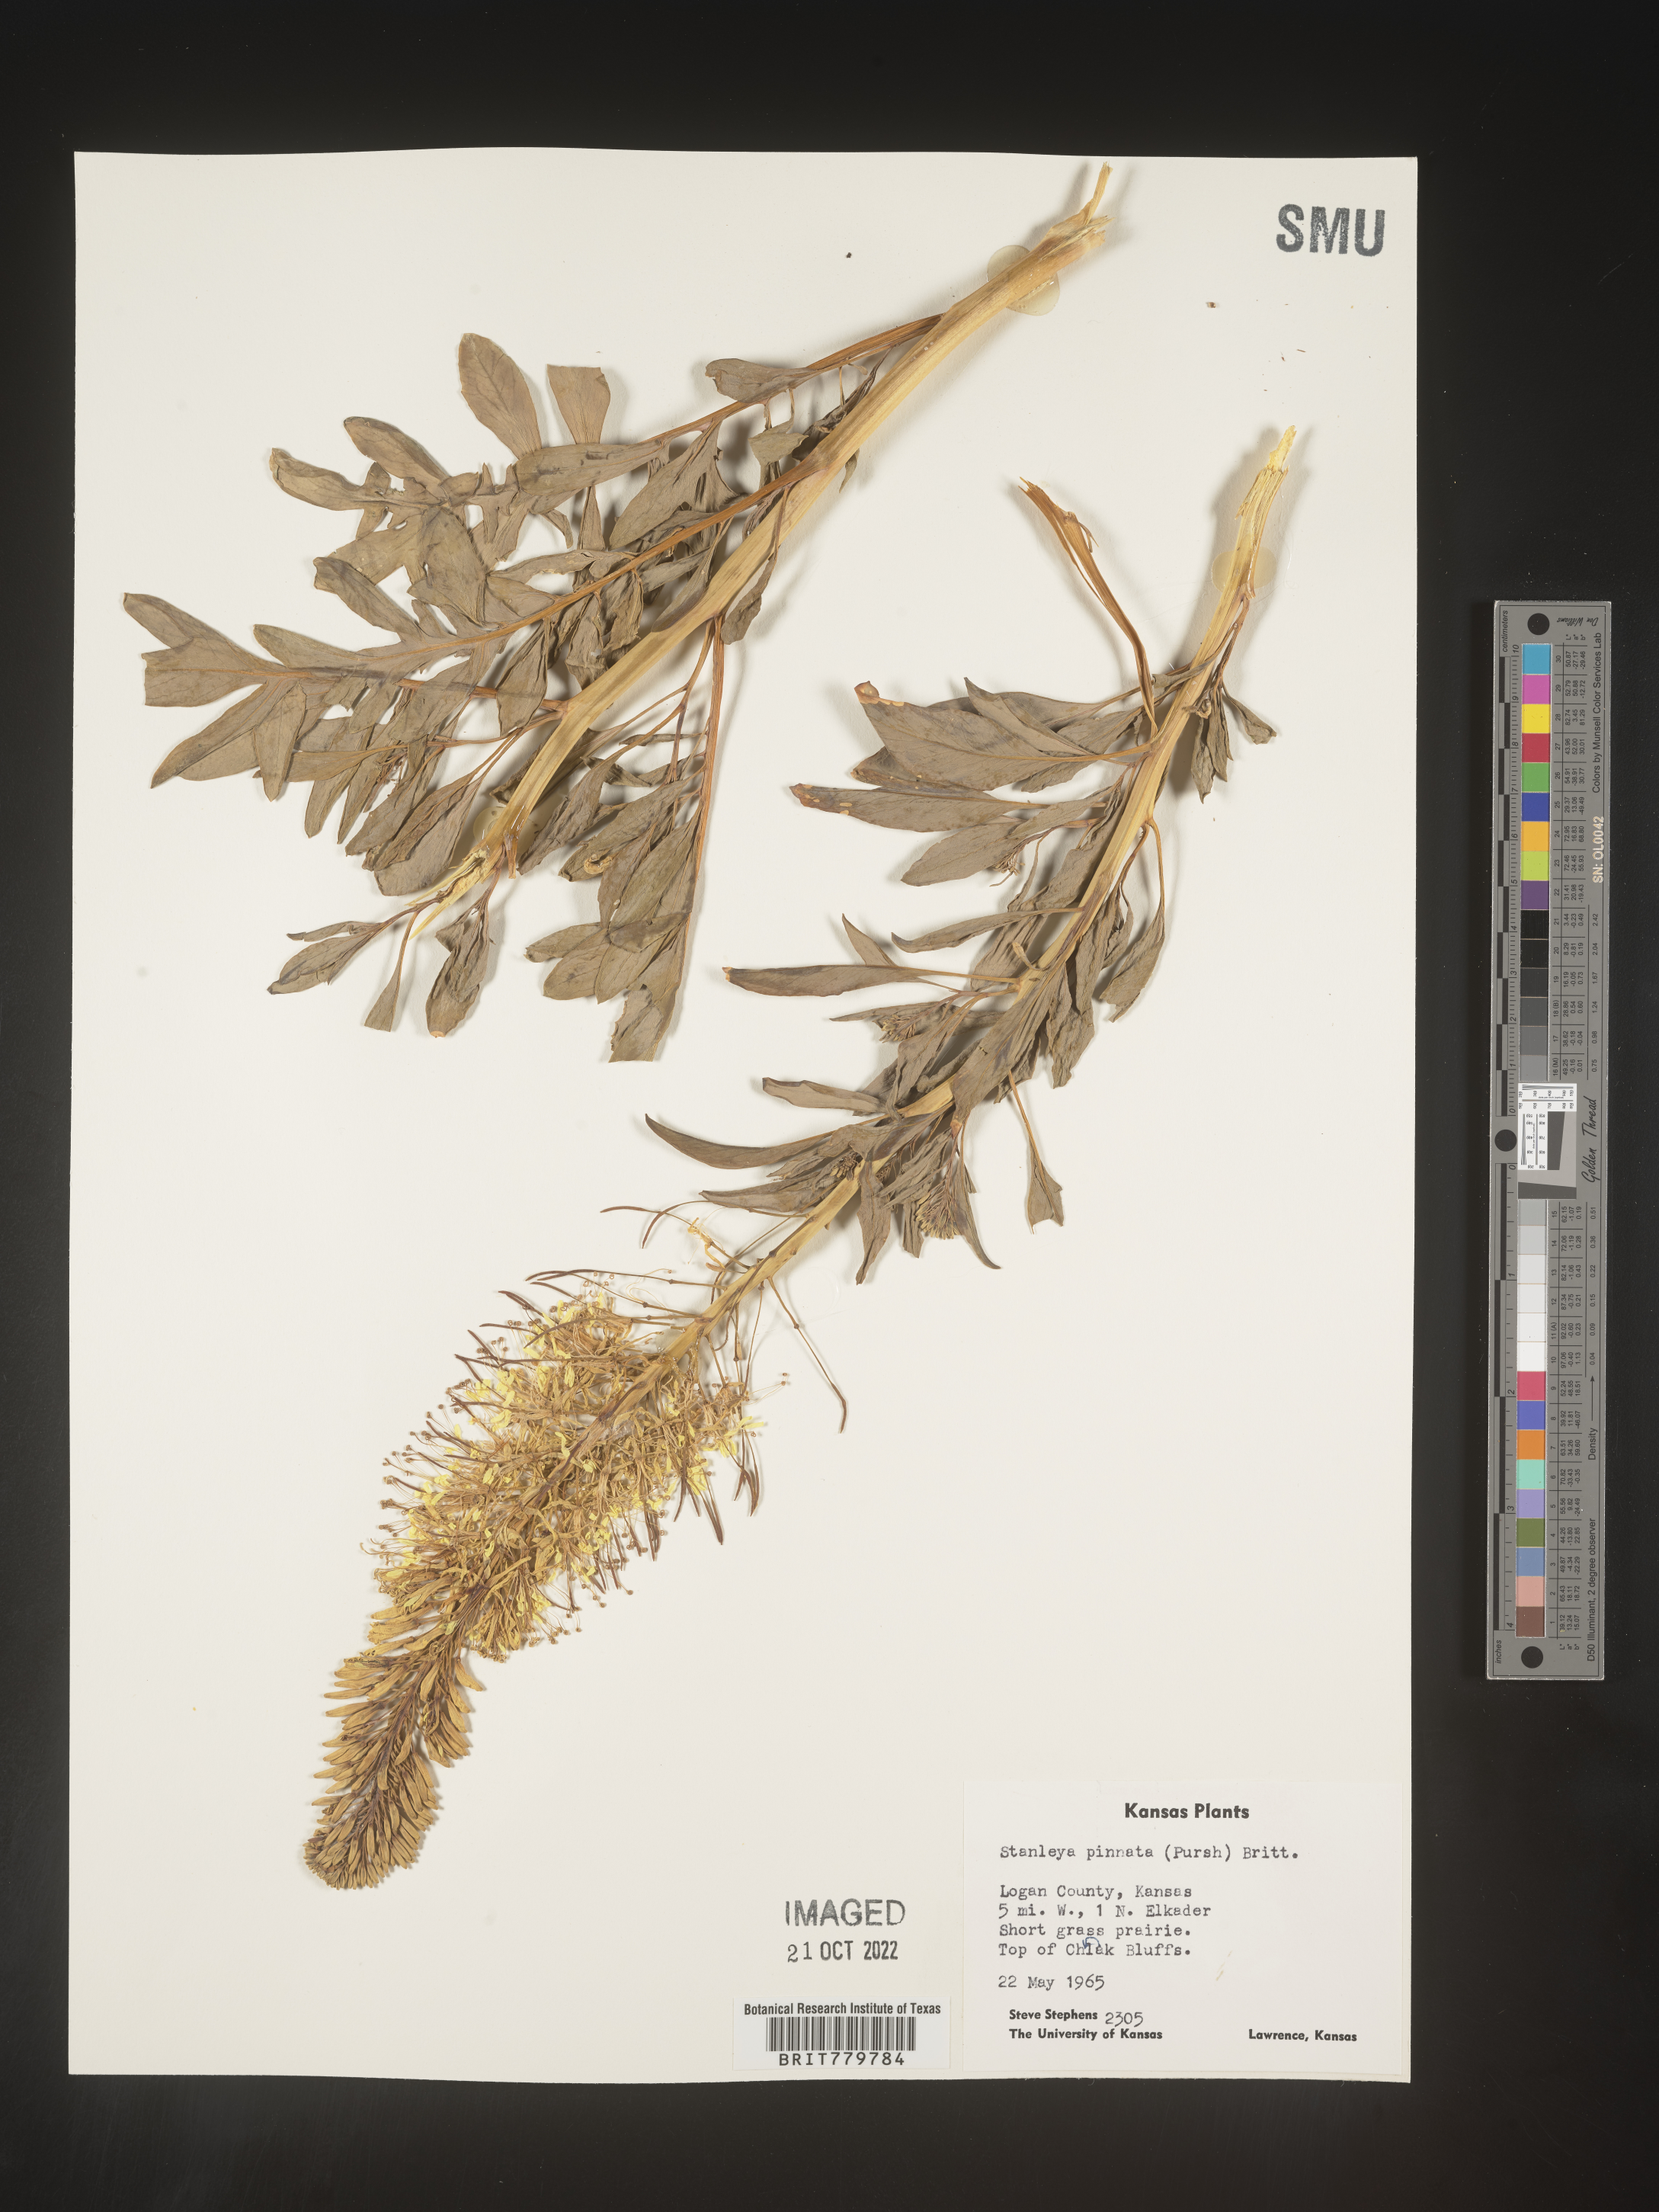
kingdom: Plantae
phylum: Tracheophyta
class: Magnoliopsida
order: Brassicales
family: Brassicaceae
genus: Stanleya
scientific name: Stanleya pinnata
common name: Prince's-plume
